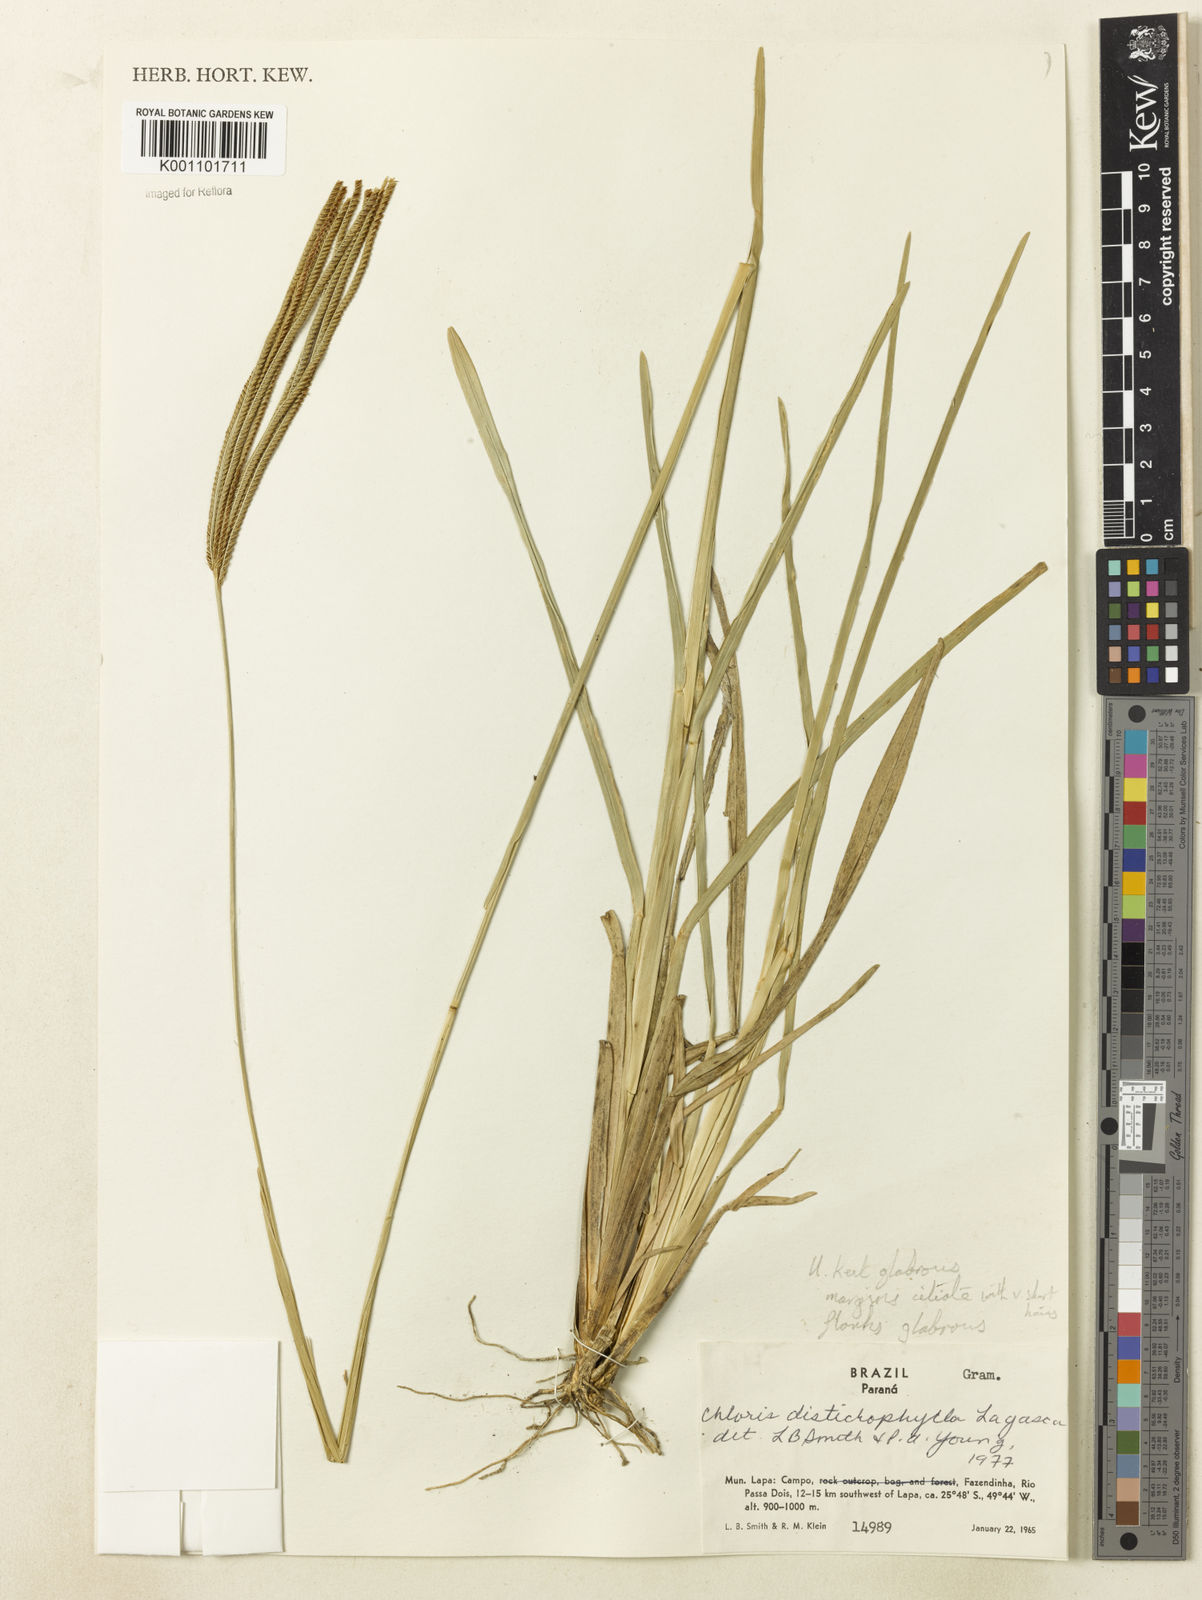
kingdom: Plantae
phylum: Tracheophyta
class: Liliopsida
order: Poales
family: Poaceae
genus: Eustachys
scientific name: Eustachys distichophylla
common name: Weeping fingergrass
